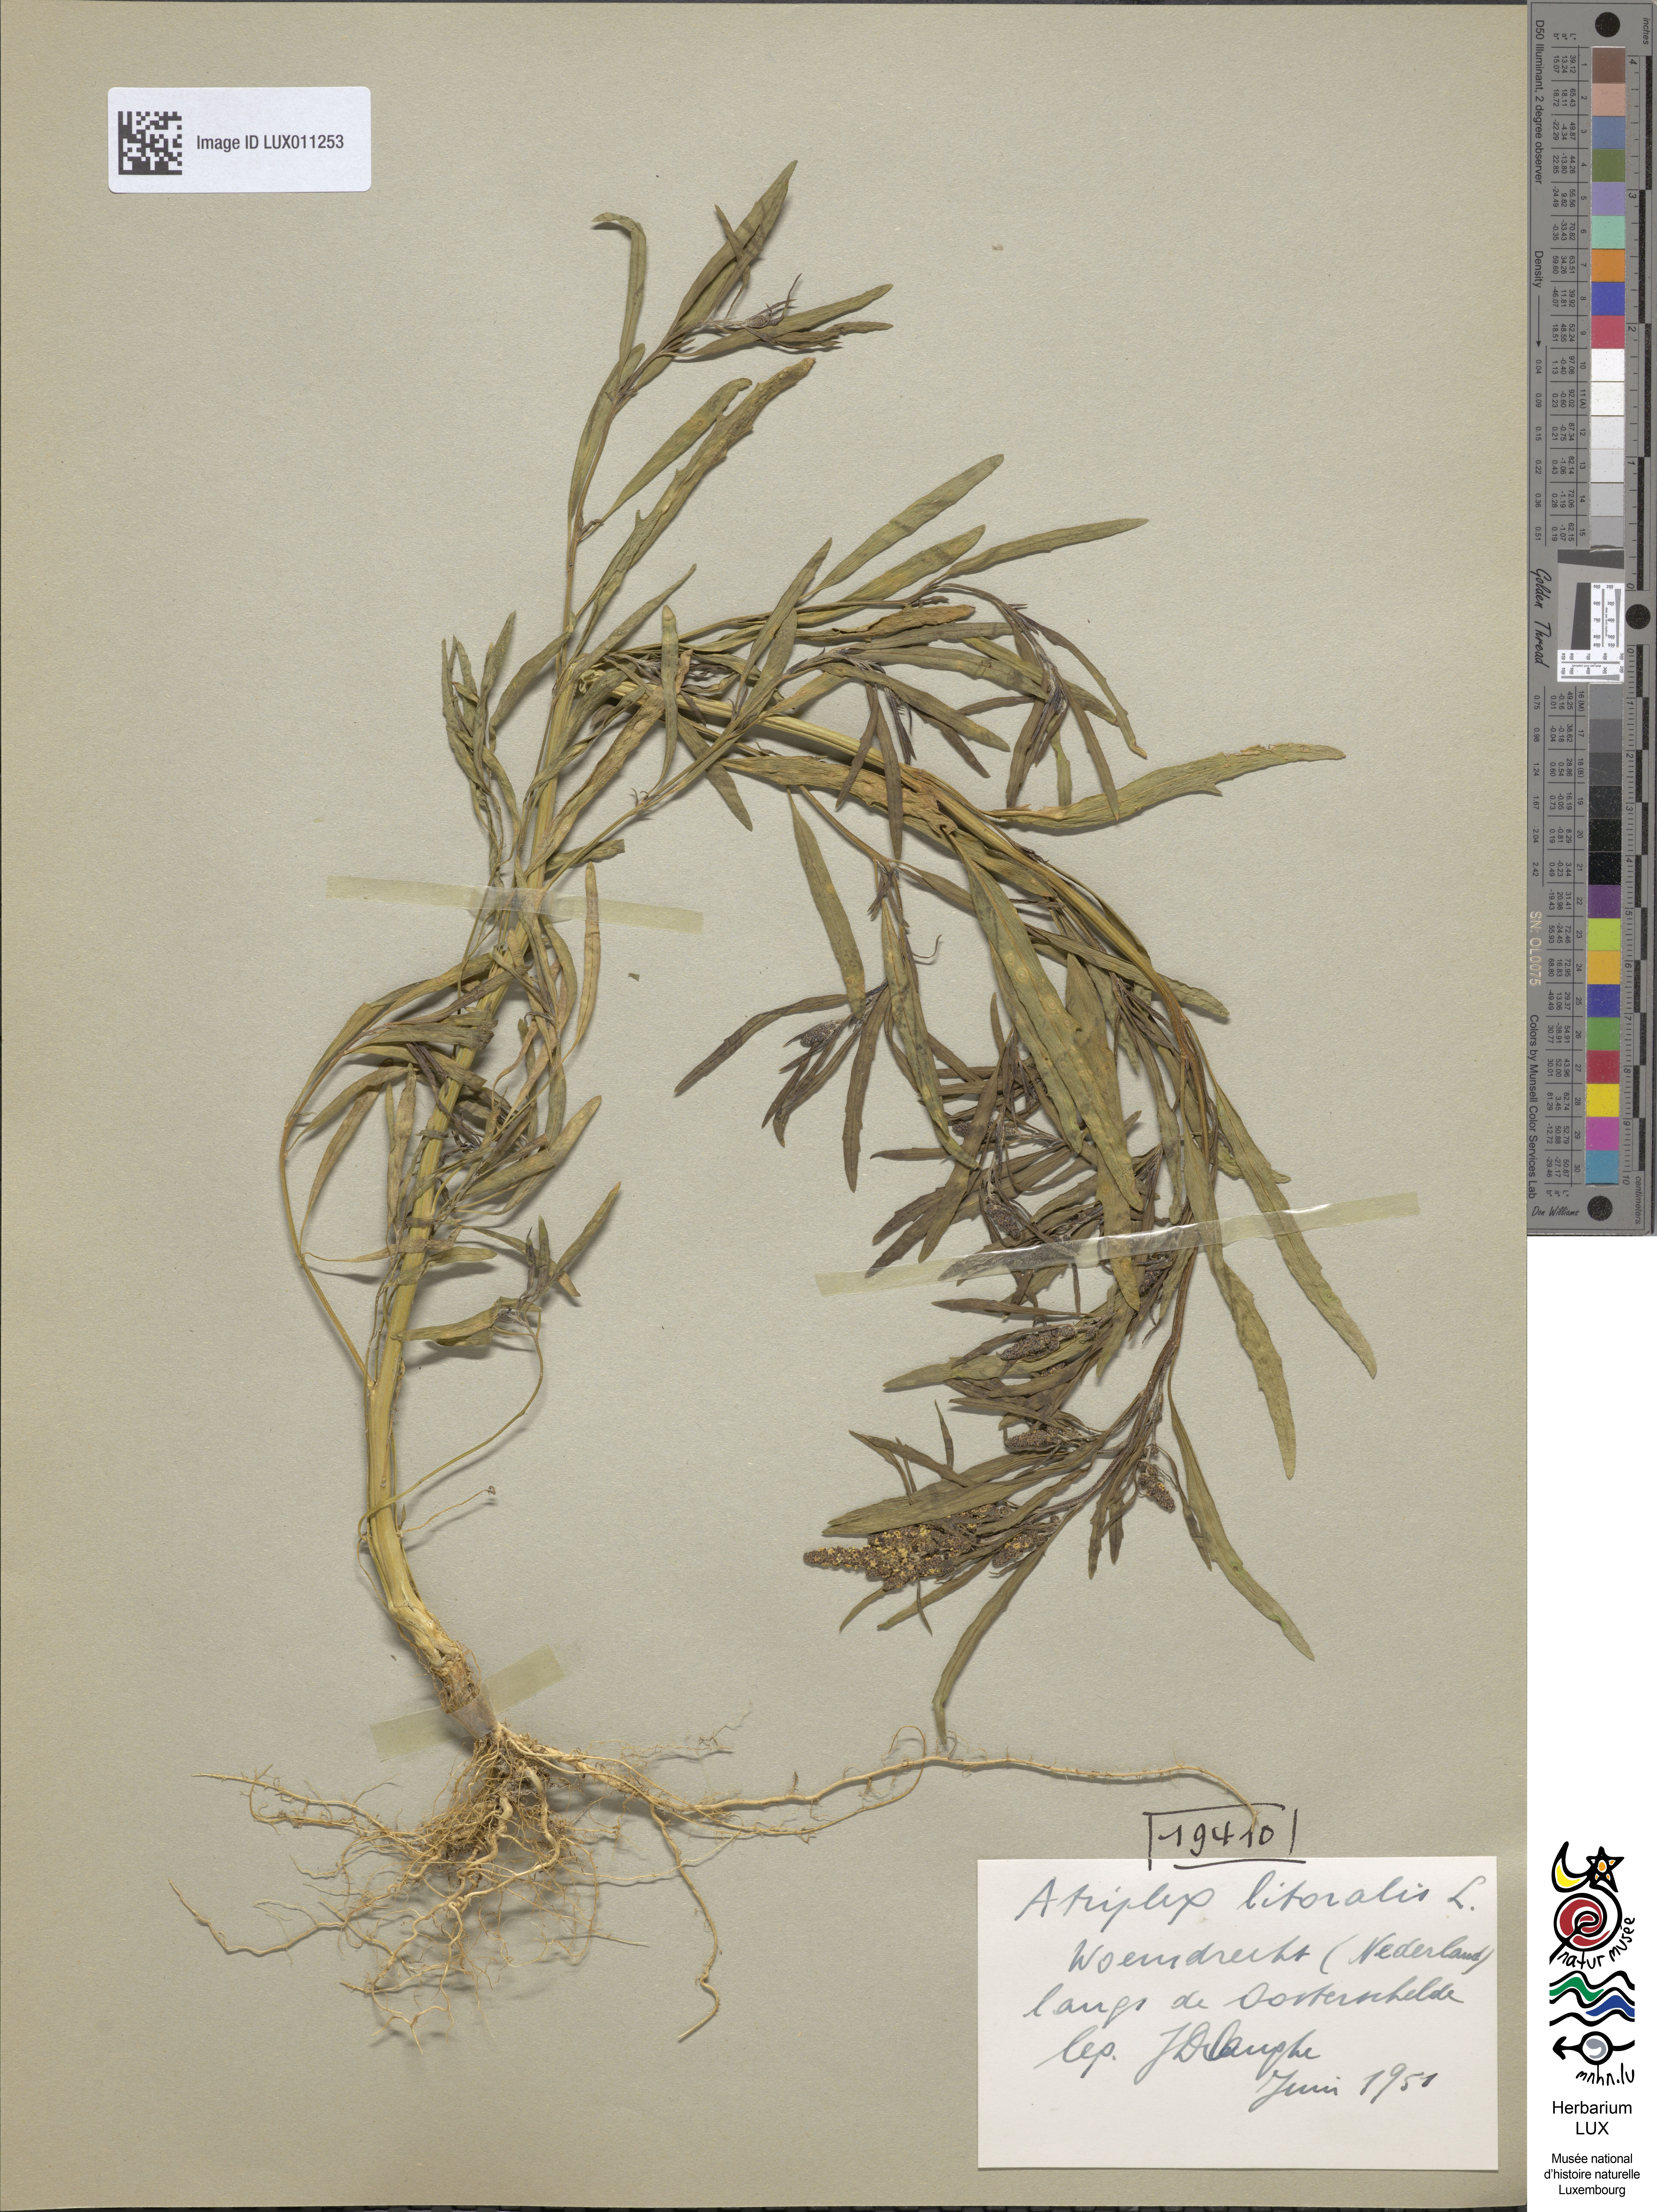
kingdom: Plantae
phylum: Tracheophyta
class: Magnoliopsida
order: Caryophyllales
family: Amaranthaceae
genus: Atriplex
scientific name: Atriplex littoralis
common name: Grass-leaved orache
